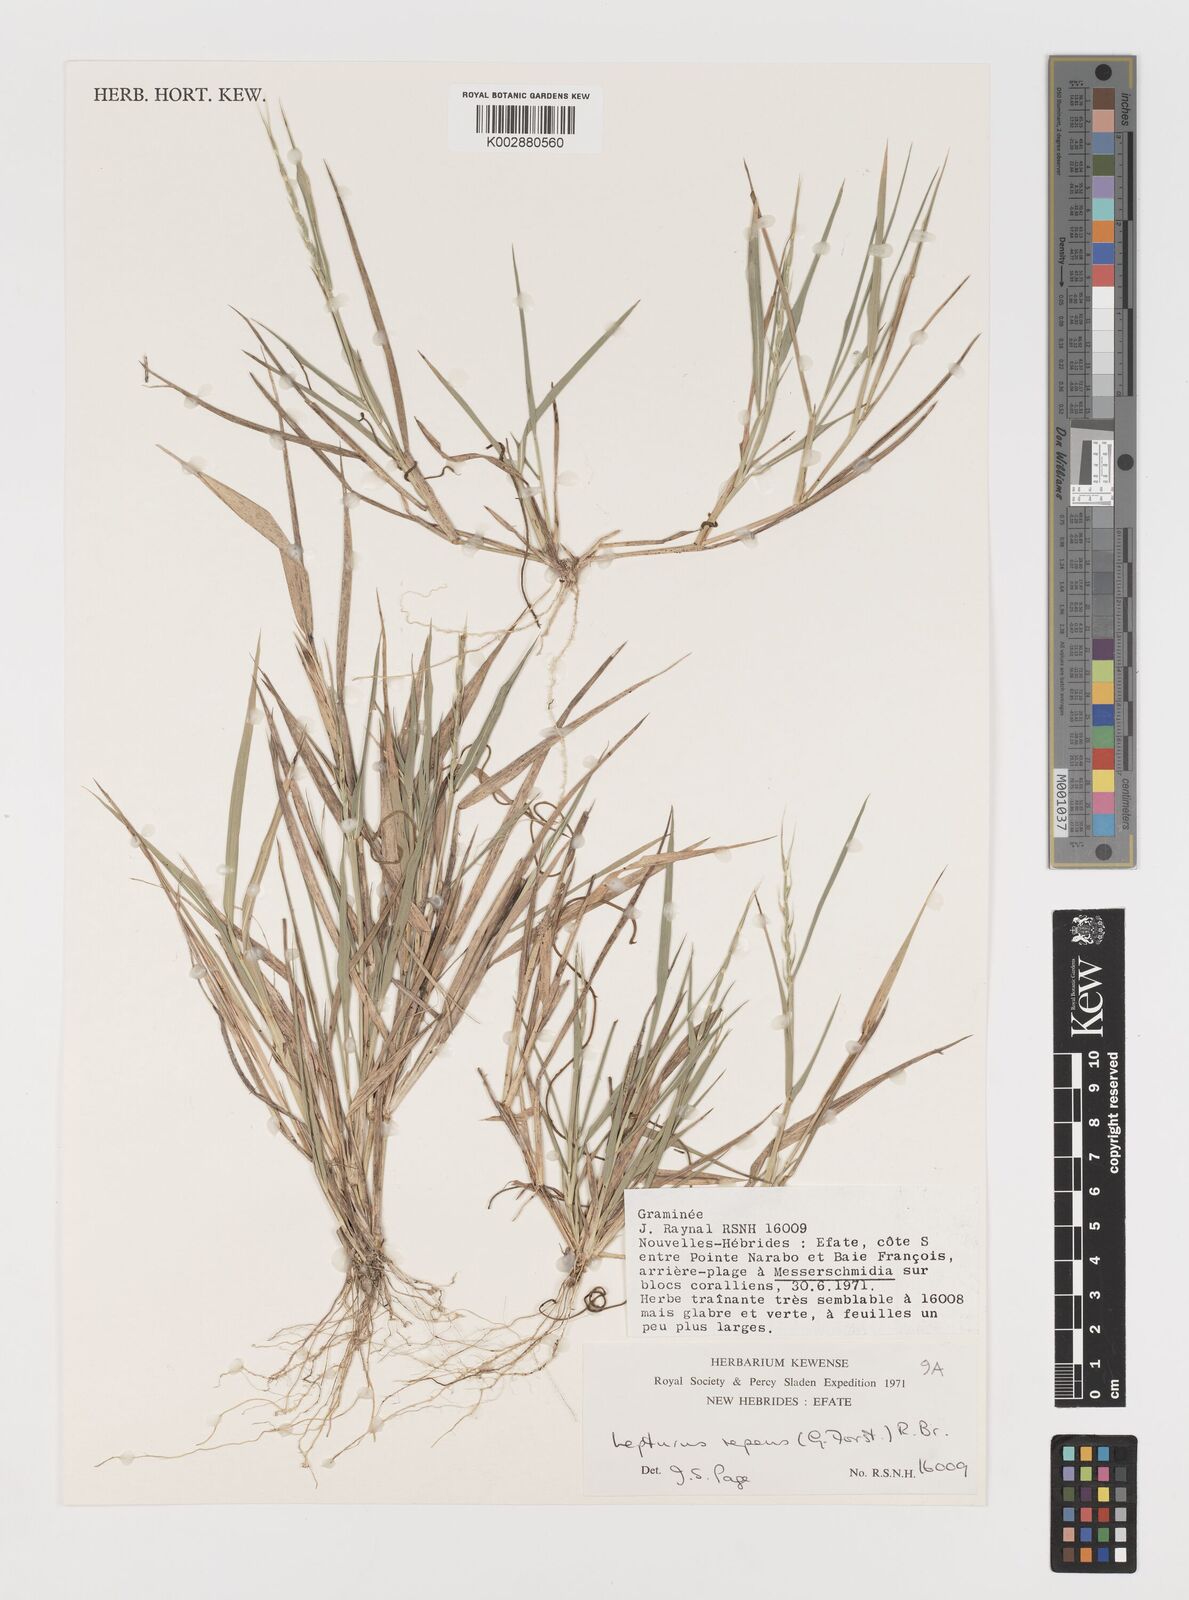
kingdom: Plantae
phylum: Tracheophyta
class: Liliopsida
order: Poales
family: Poaceae
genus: Lepturus
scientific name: Lepturus repens
